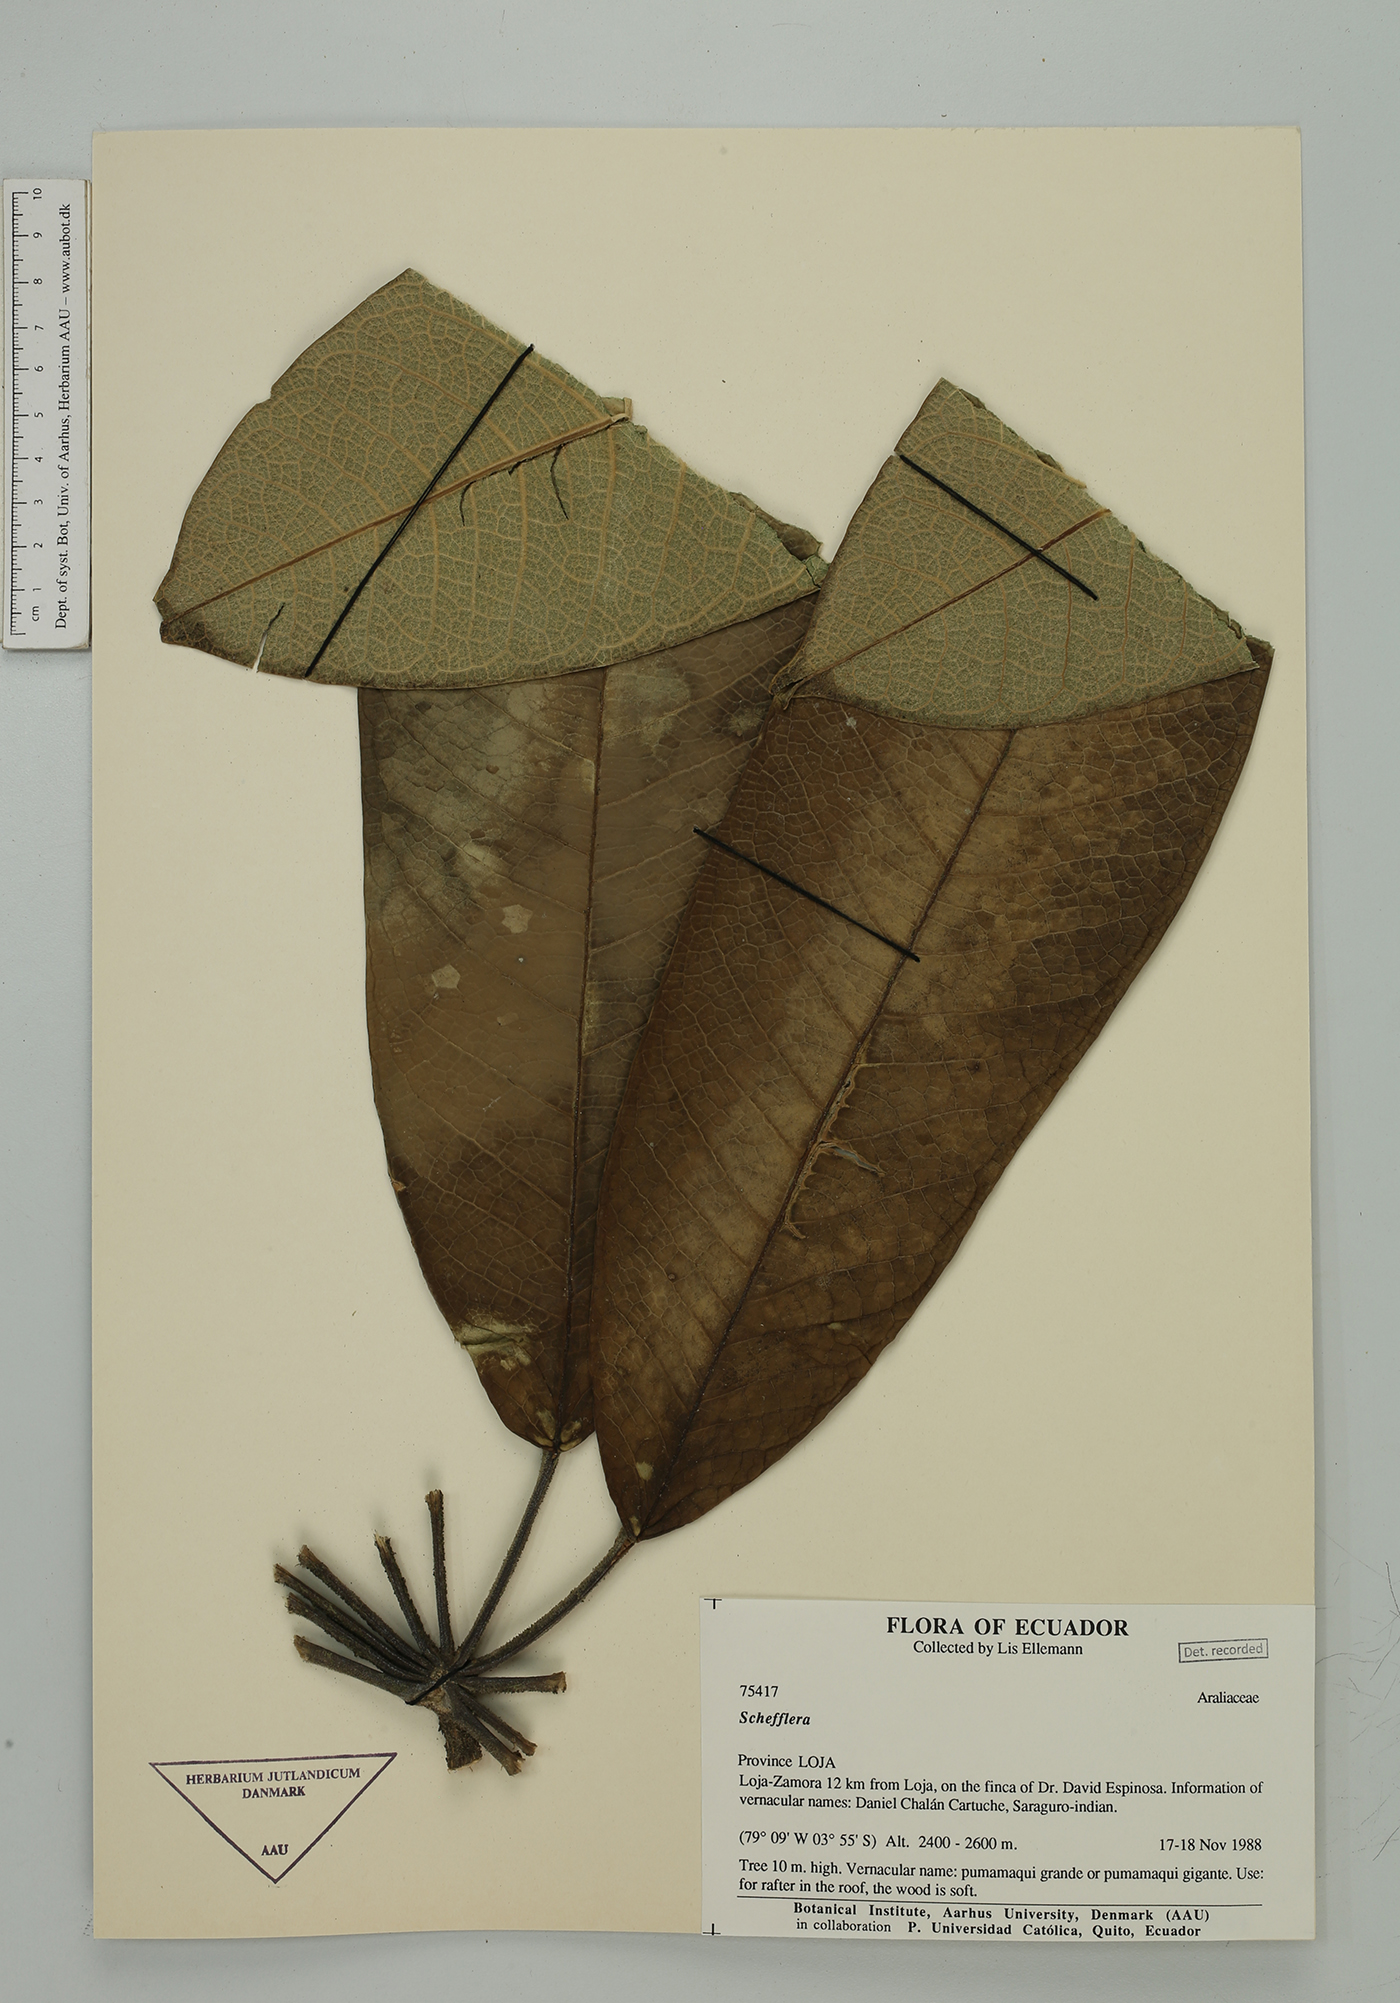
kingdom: Plantae
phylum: Tracheophyta
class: Magnoliopsida
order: Apiales
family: Araliaceae
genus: Sciodaphyllum
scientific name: Sciodaphyllum
